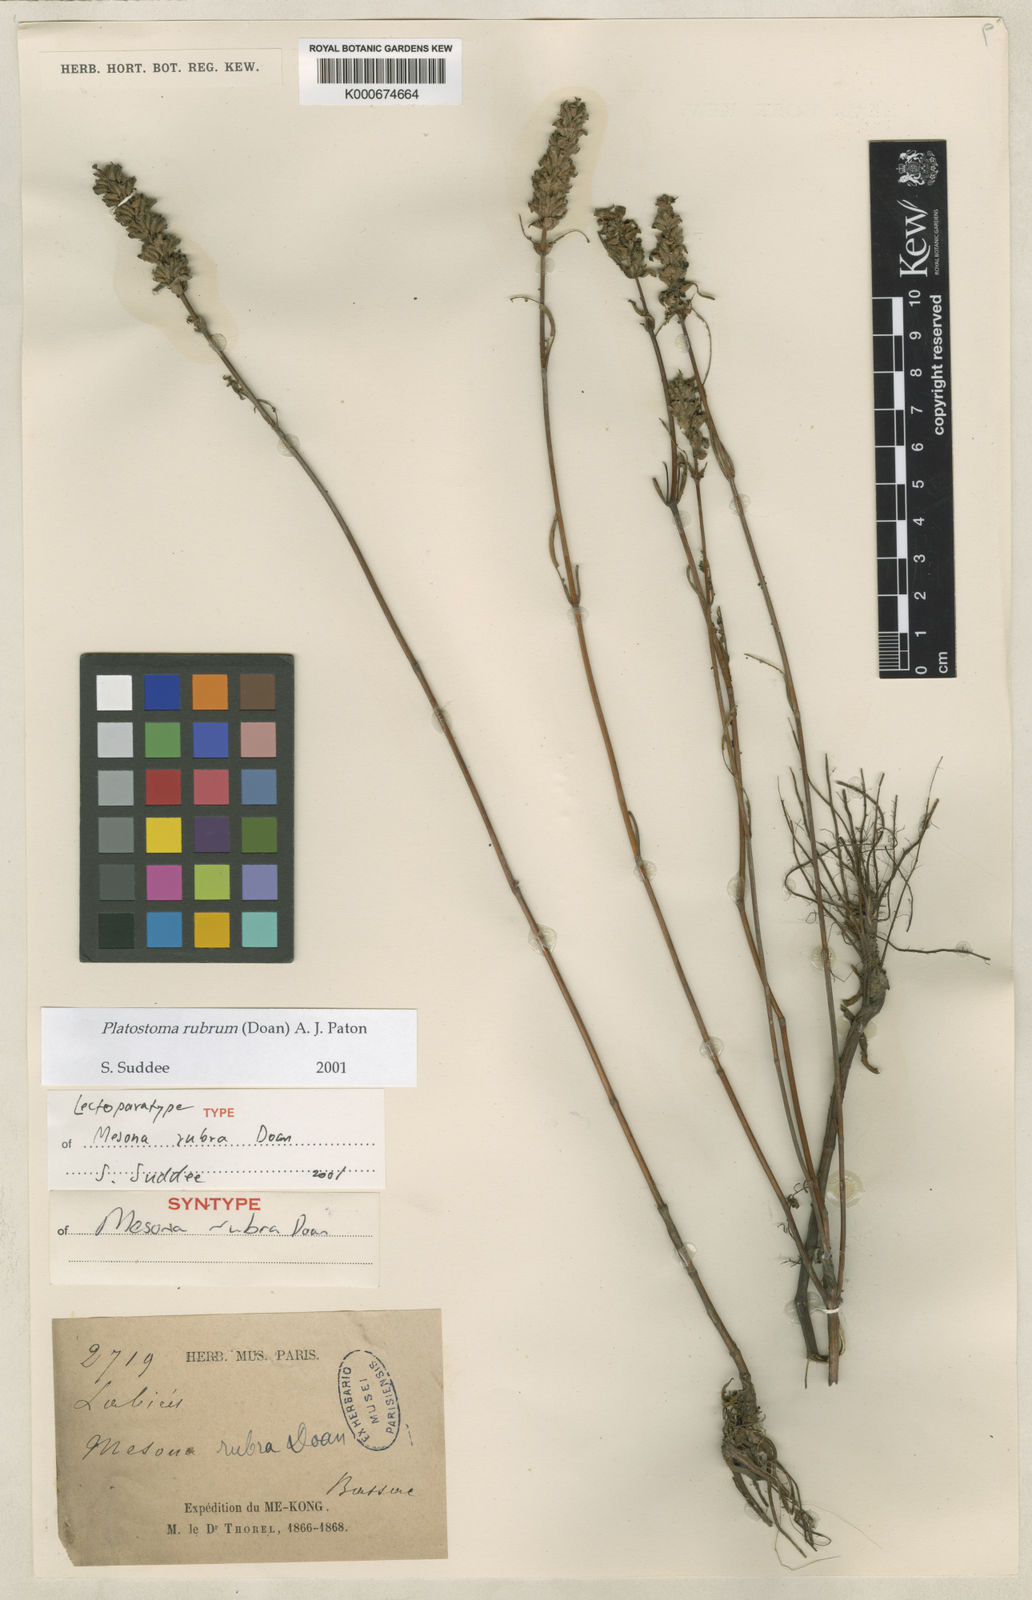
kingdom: Plantae
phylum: Tracheophyta
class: Magnoliopsida
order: Lamiales
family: Lamiaceae
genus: Platostoma
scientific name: Platostoma rubrum
